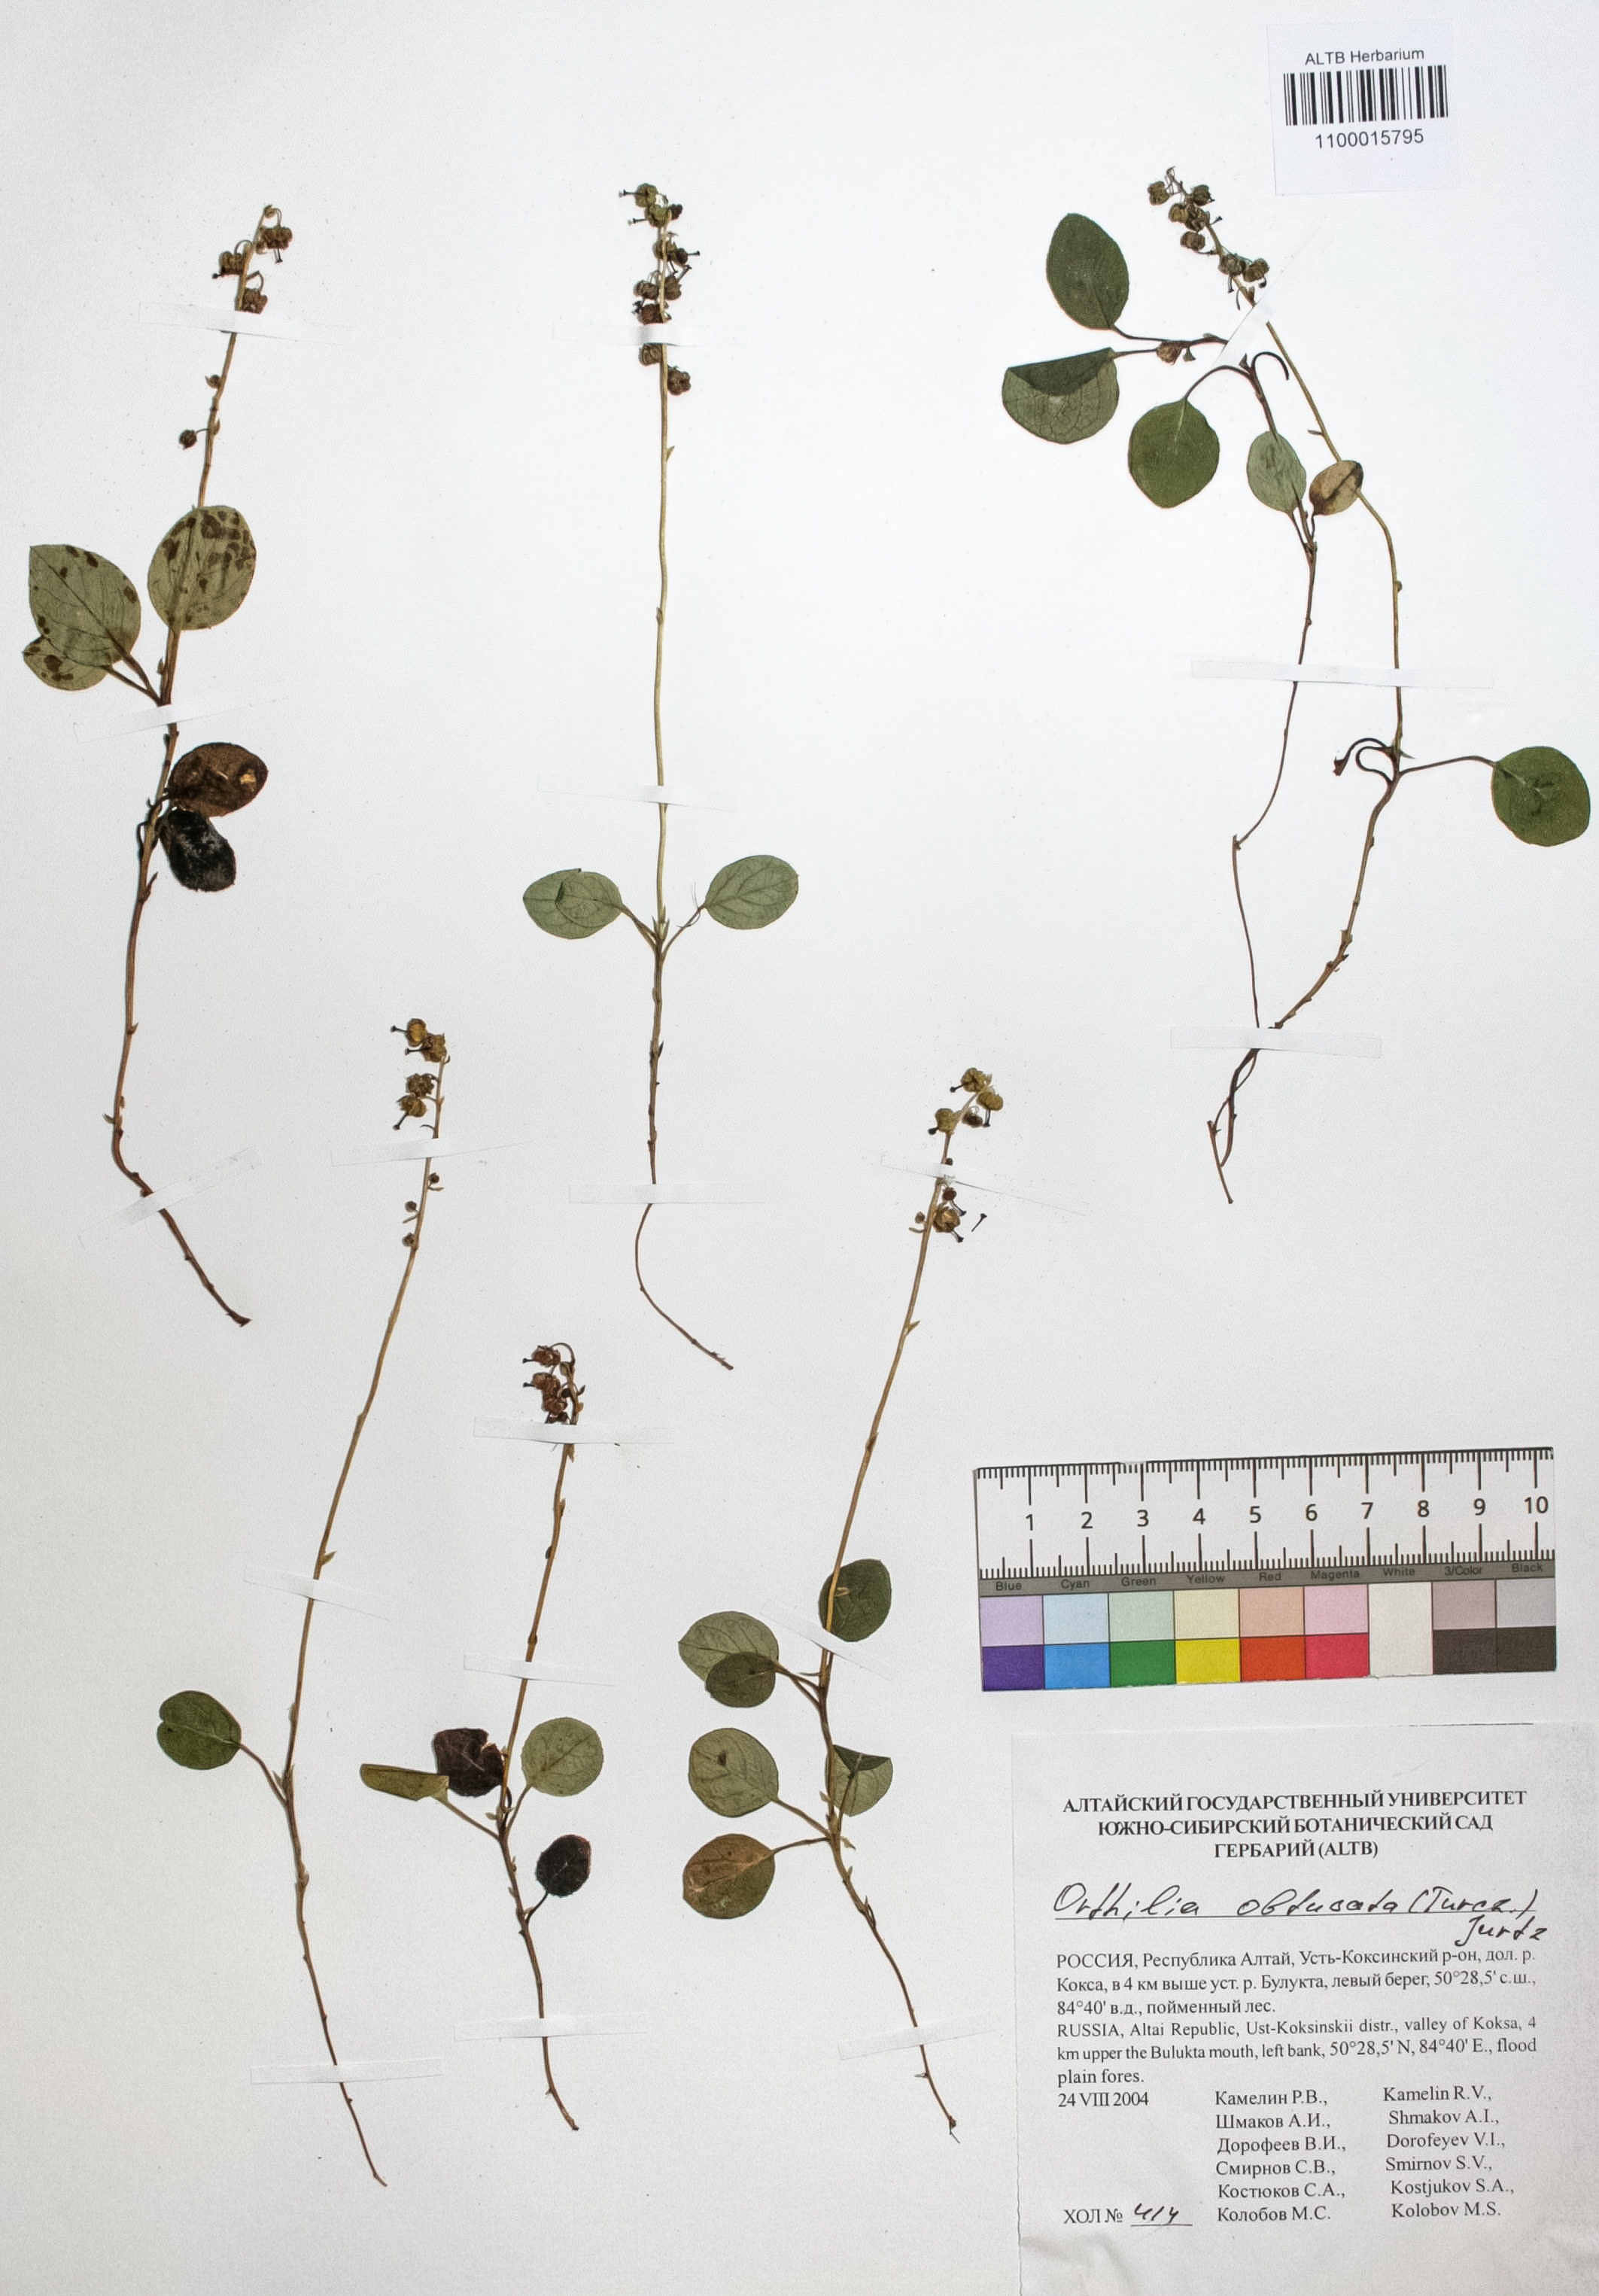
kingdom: Plantae
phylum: Tracheophyta
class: Magnoliopsida
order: Ericales
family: Ericaceae
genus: Orthilia
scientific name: Orthilia secunda
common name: One-sided orthilia
